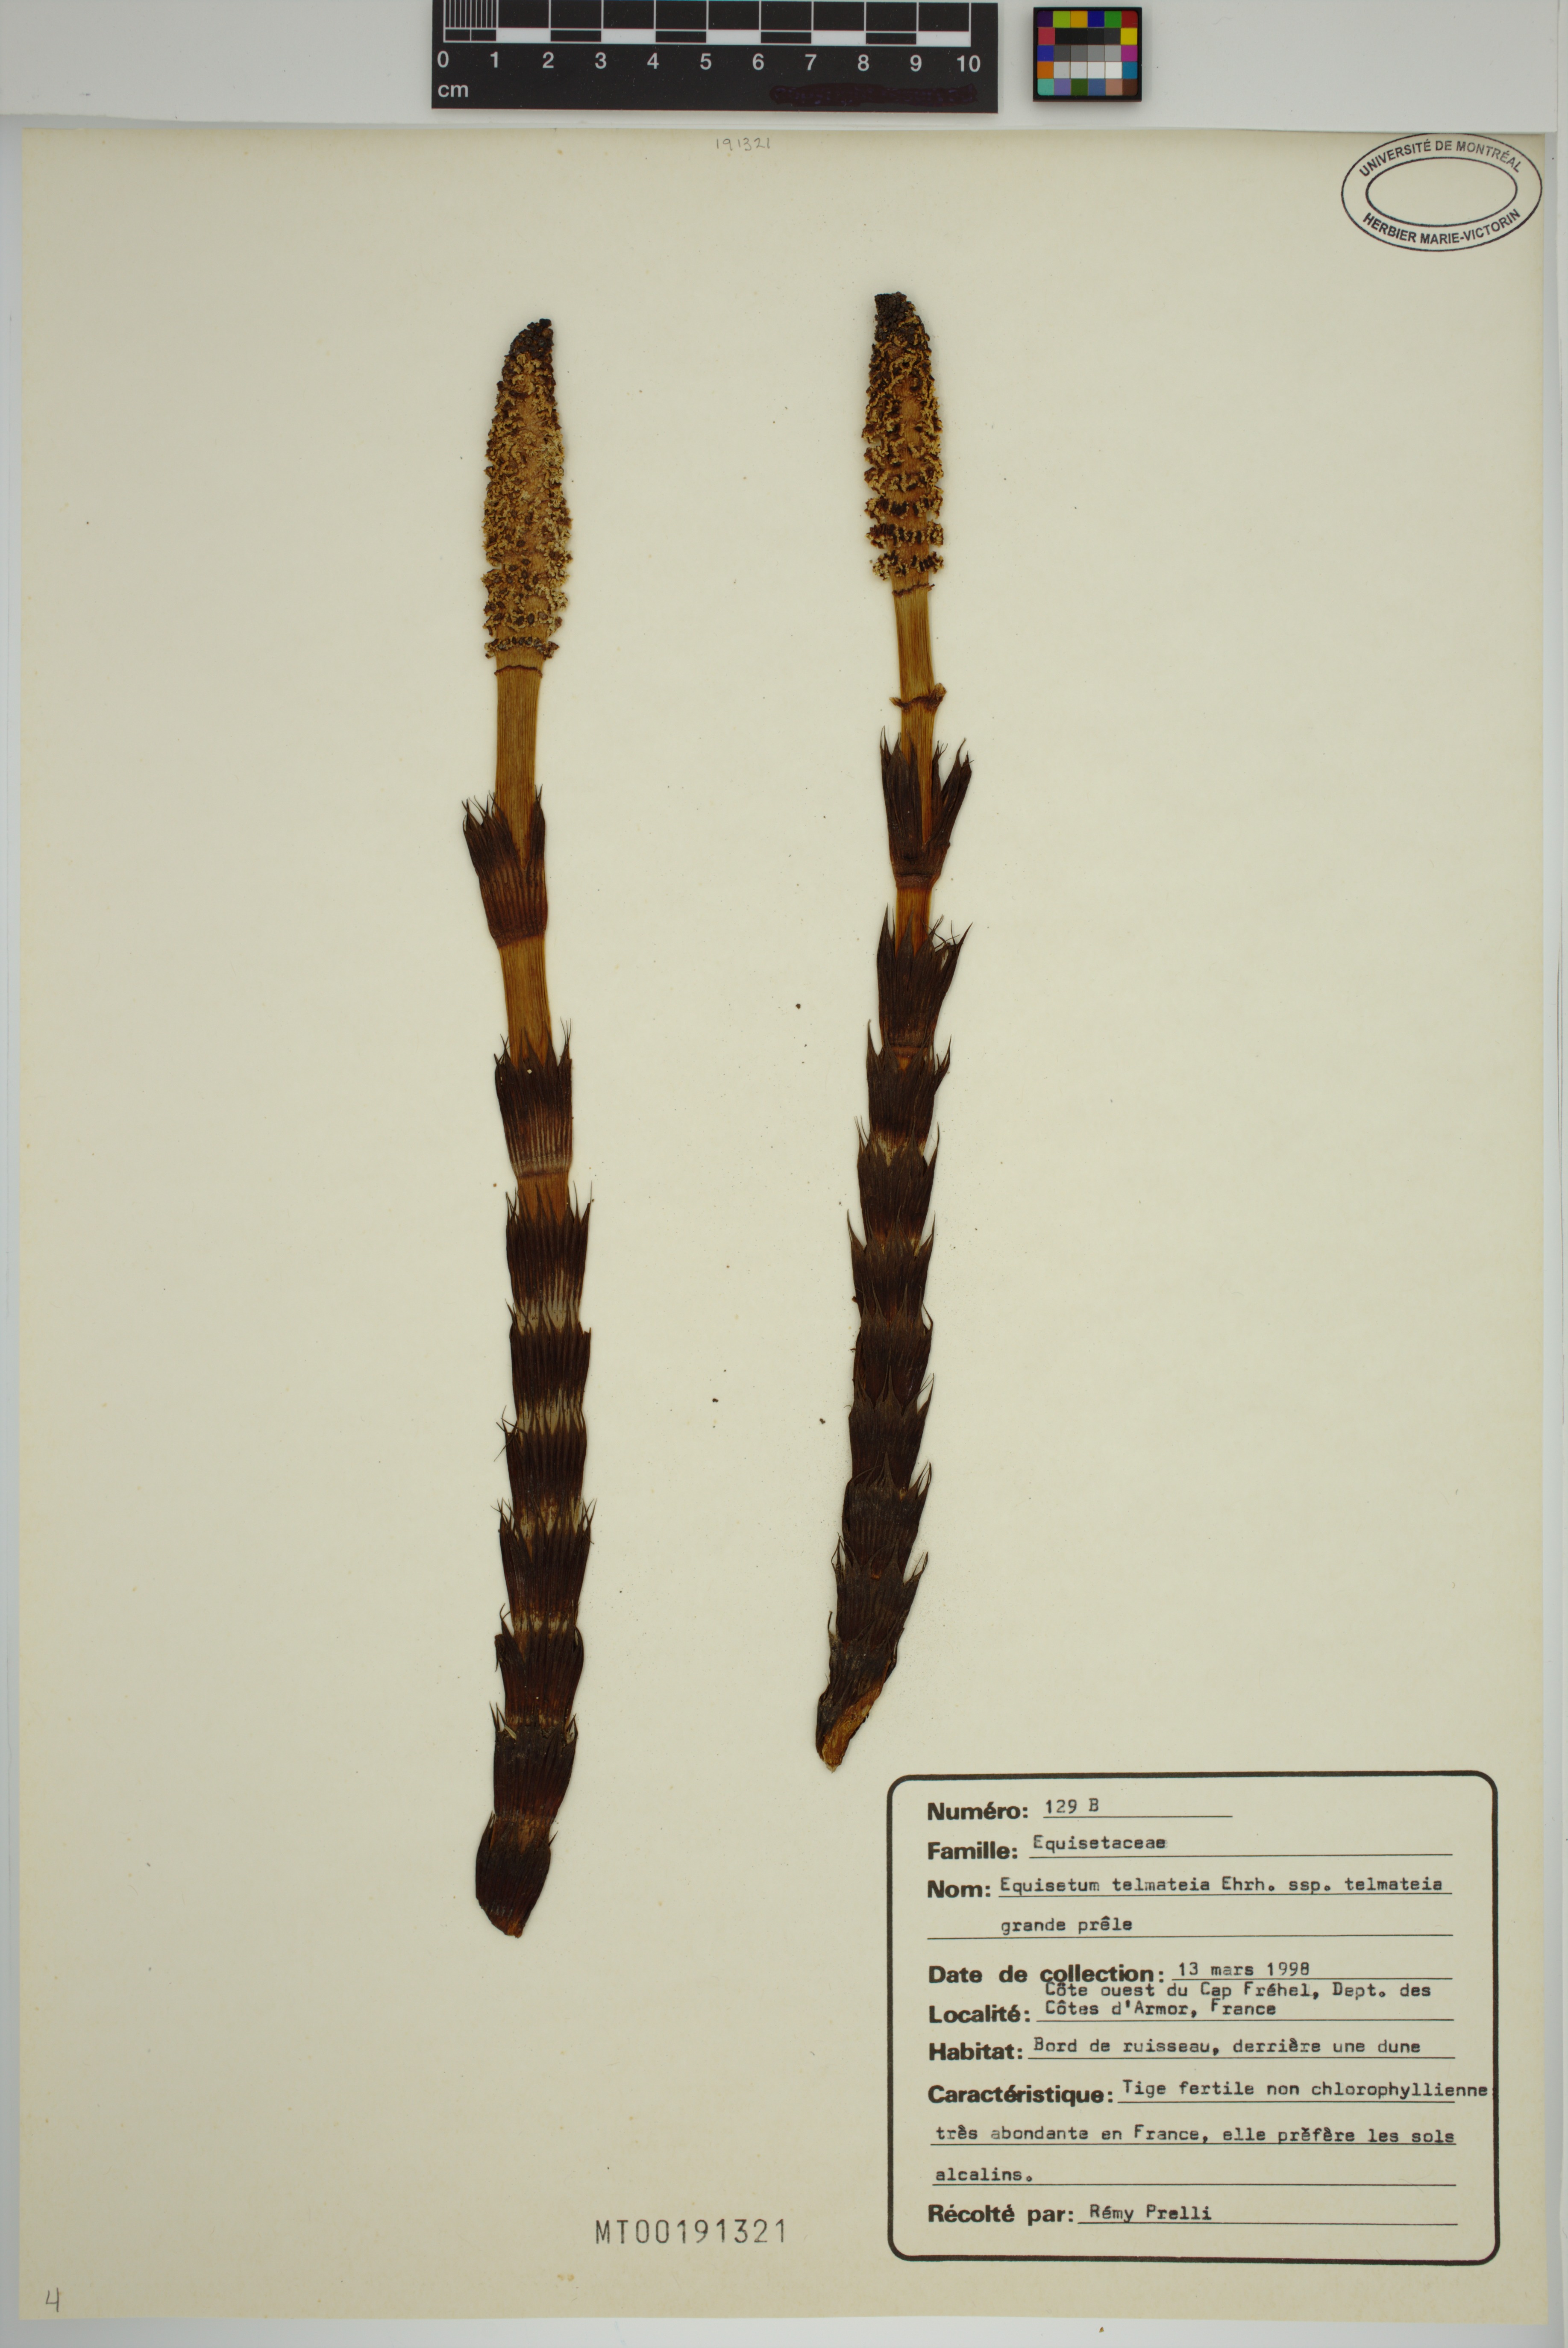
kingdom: Plantae
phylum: Tracheophyta
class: Polypodiopsida
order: Equisetales
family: Equisetaceae
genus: Equisetum
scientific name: Equisetum telmateia
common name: Great horsetail
